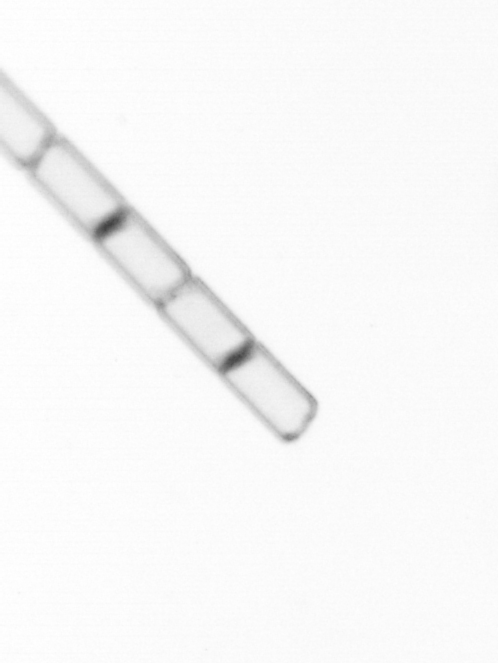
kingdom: Chromista
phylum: Ochrophyta
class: Bacillariophyceae
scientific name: Bacillariophyceae
